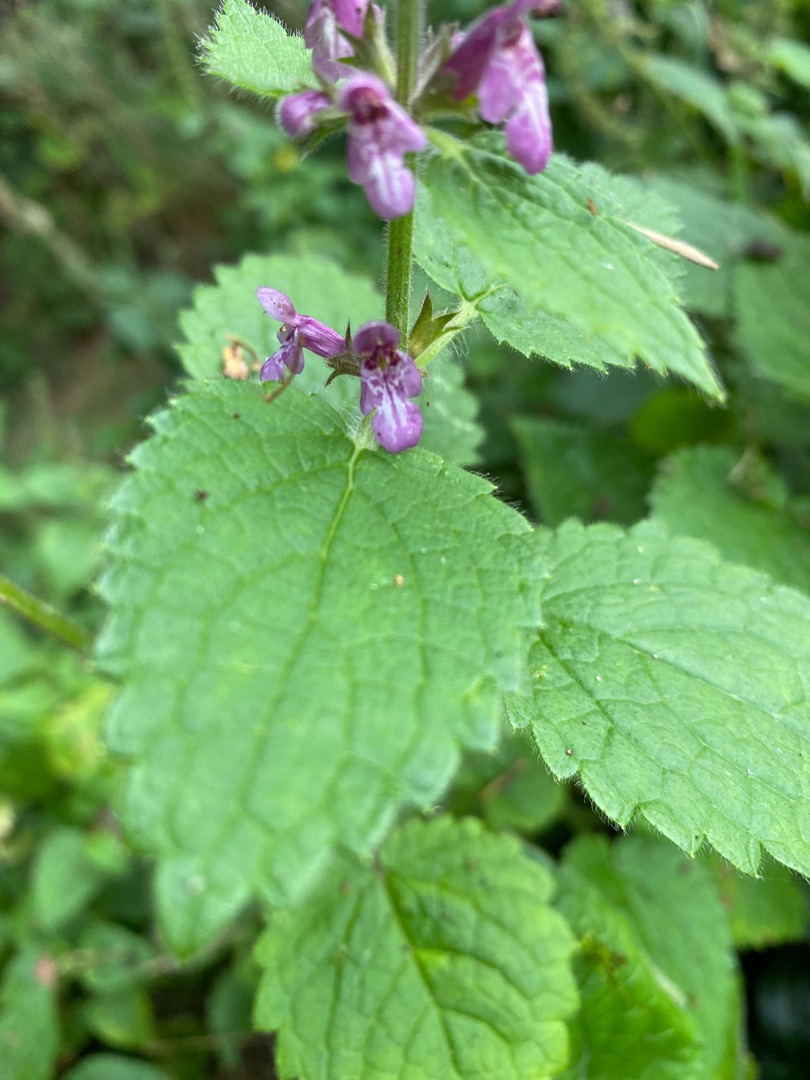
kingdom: Plantae
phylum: Tracheophyta
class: Magnoliopsida
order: Lamiales
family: Lamiaceae
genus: Stachys
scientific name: Stachys sylvatica
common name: Skov-galtetand
